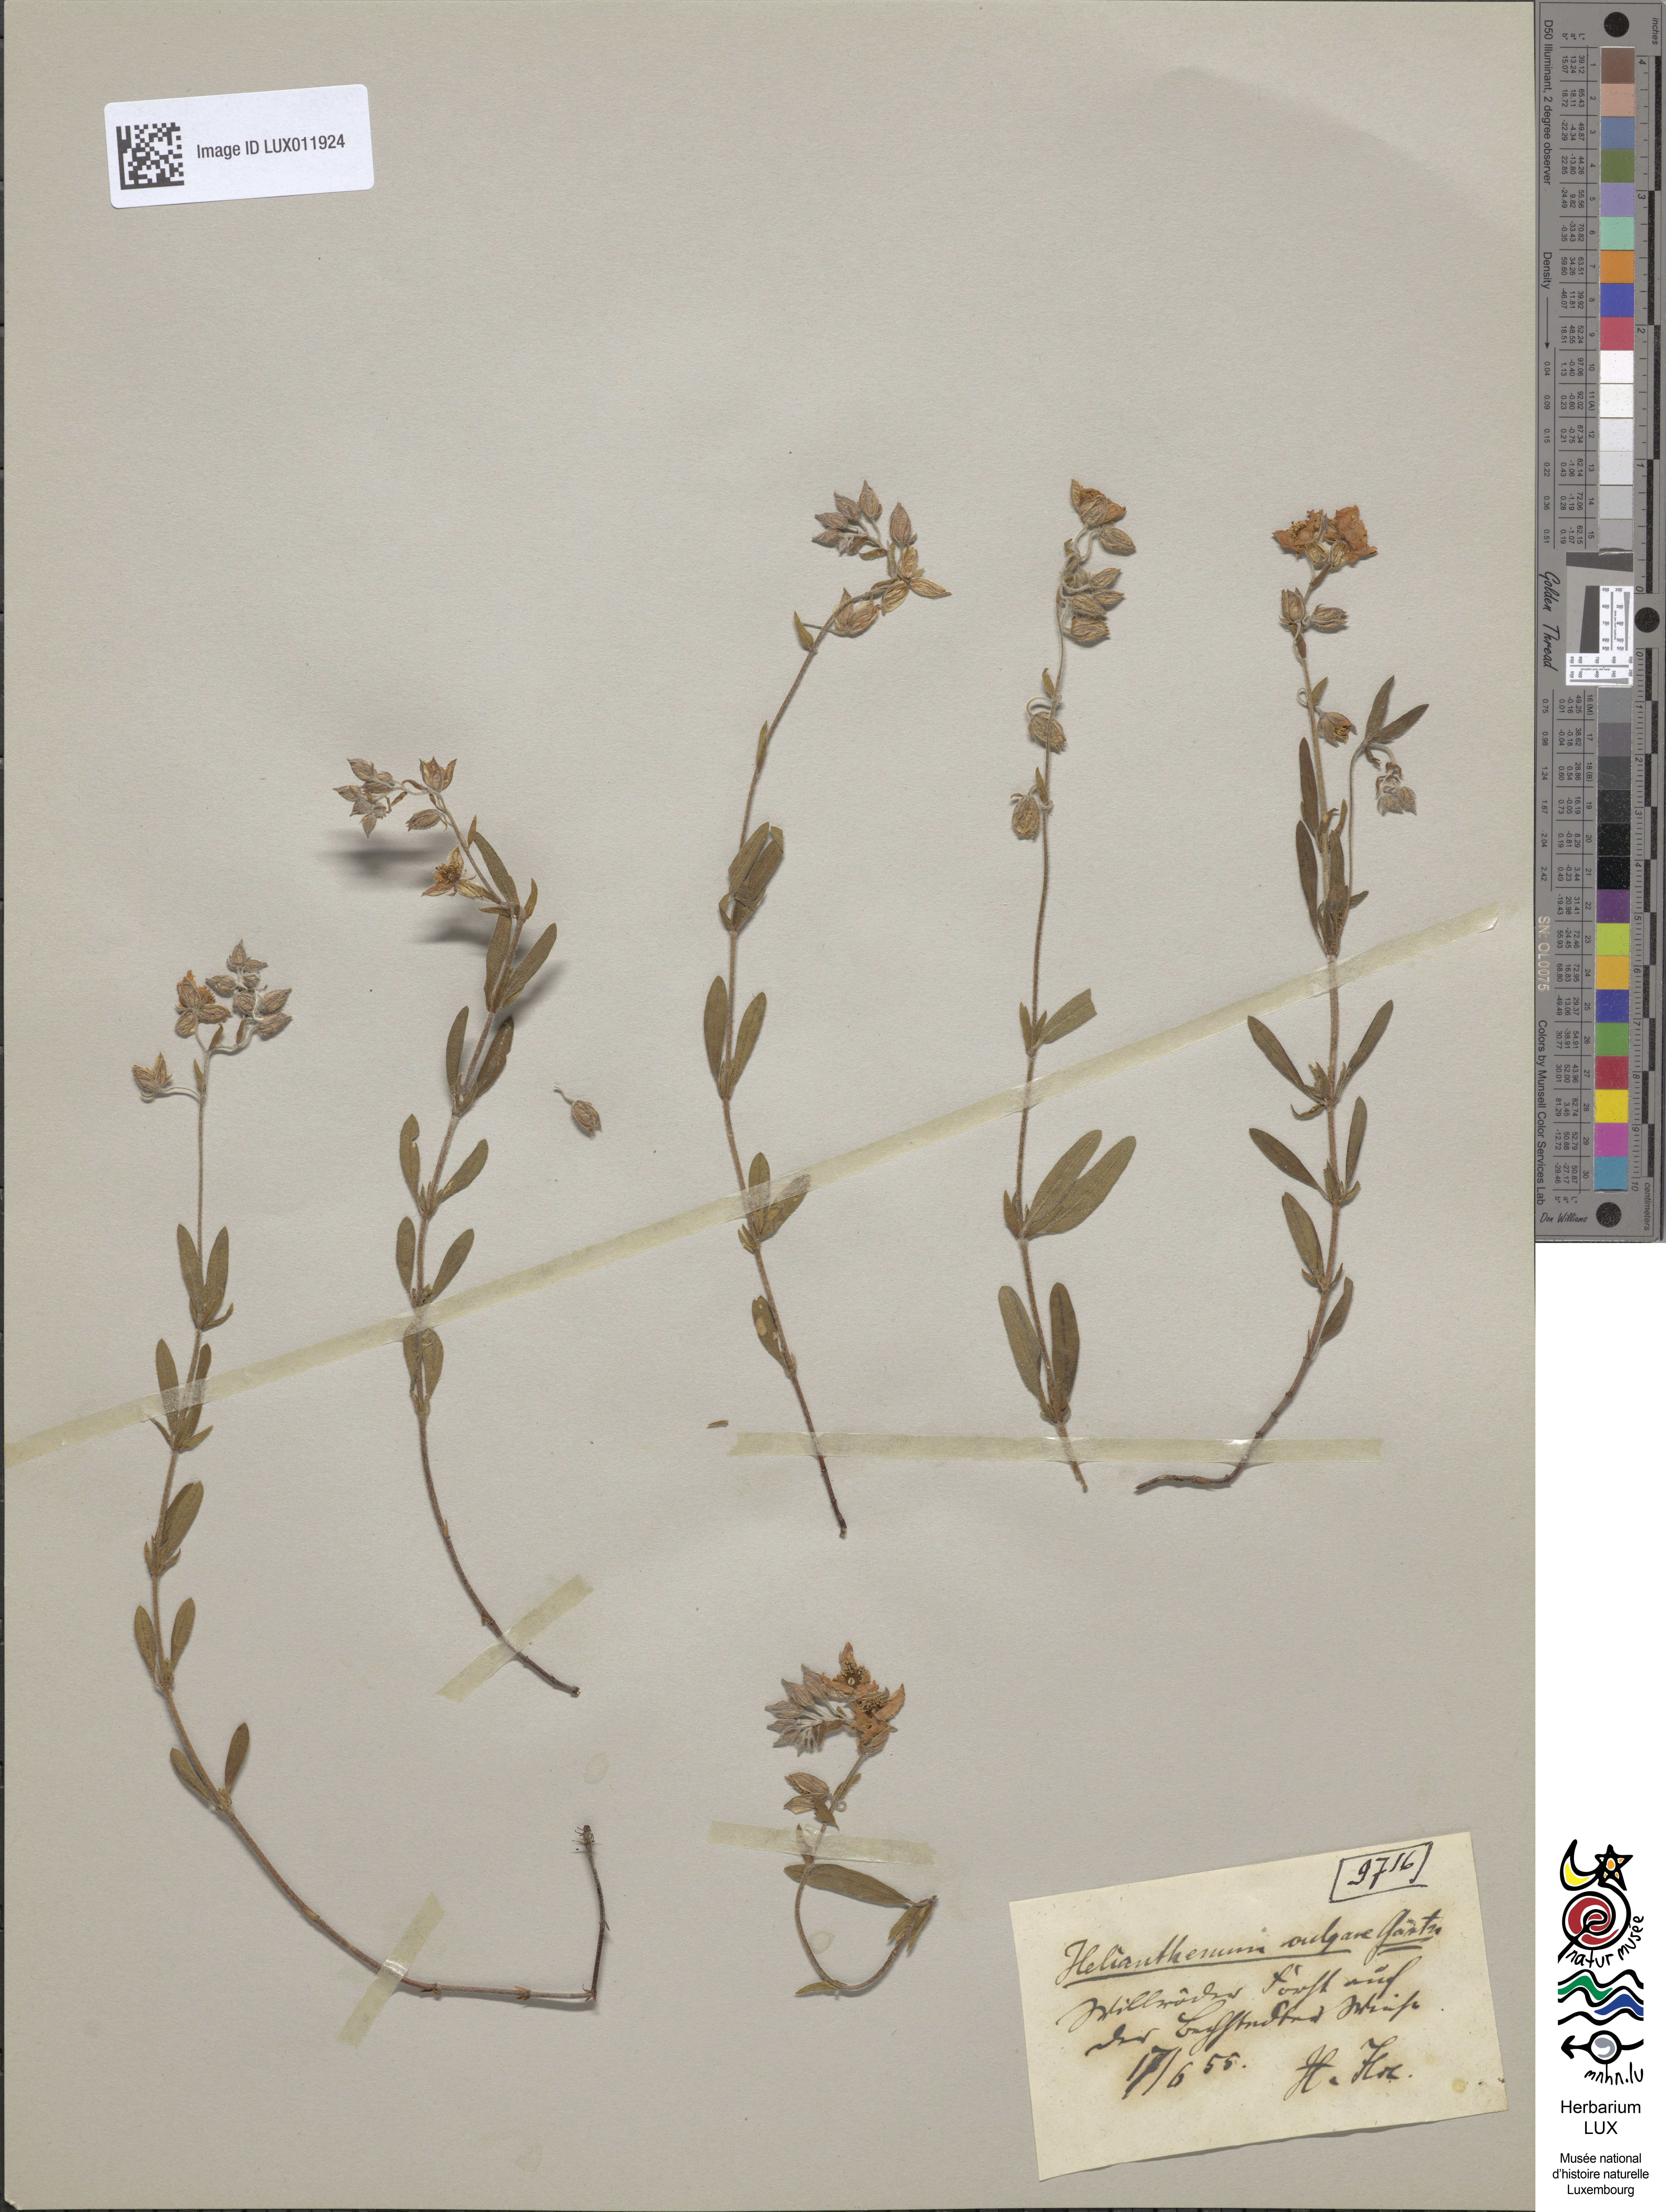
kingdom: Plantae
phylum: Tracheophyta
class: Magnoliopsida
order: Malvales
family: Cistaceae
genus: Helianthemum
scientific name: Helianthemum nummularium
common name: Common rock-rose
